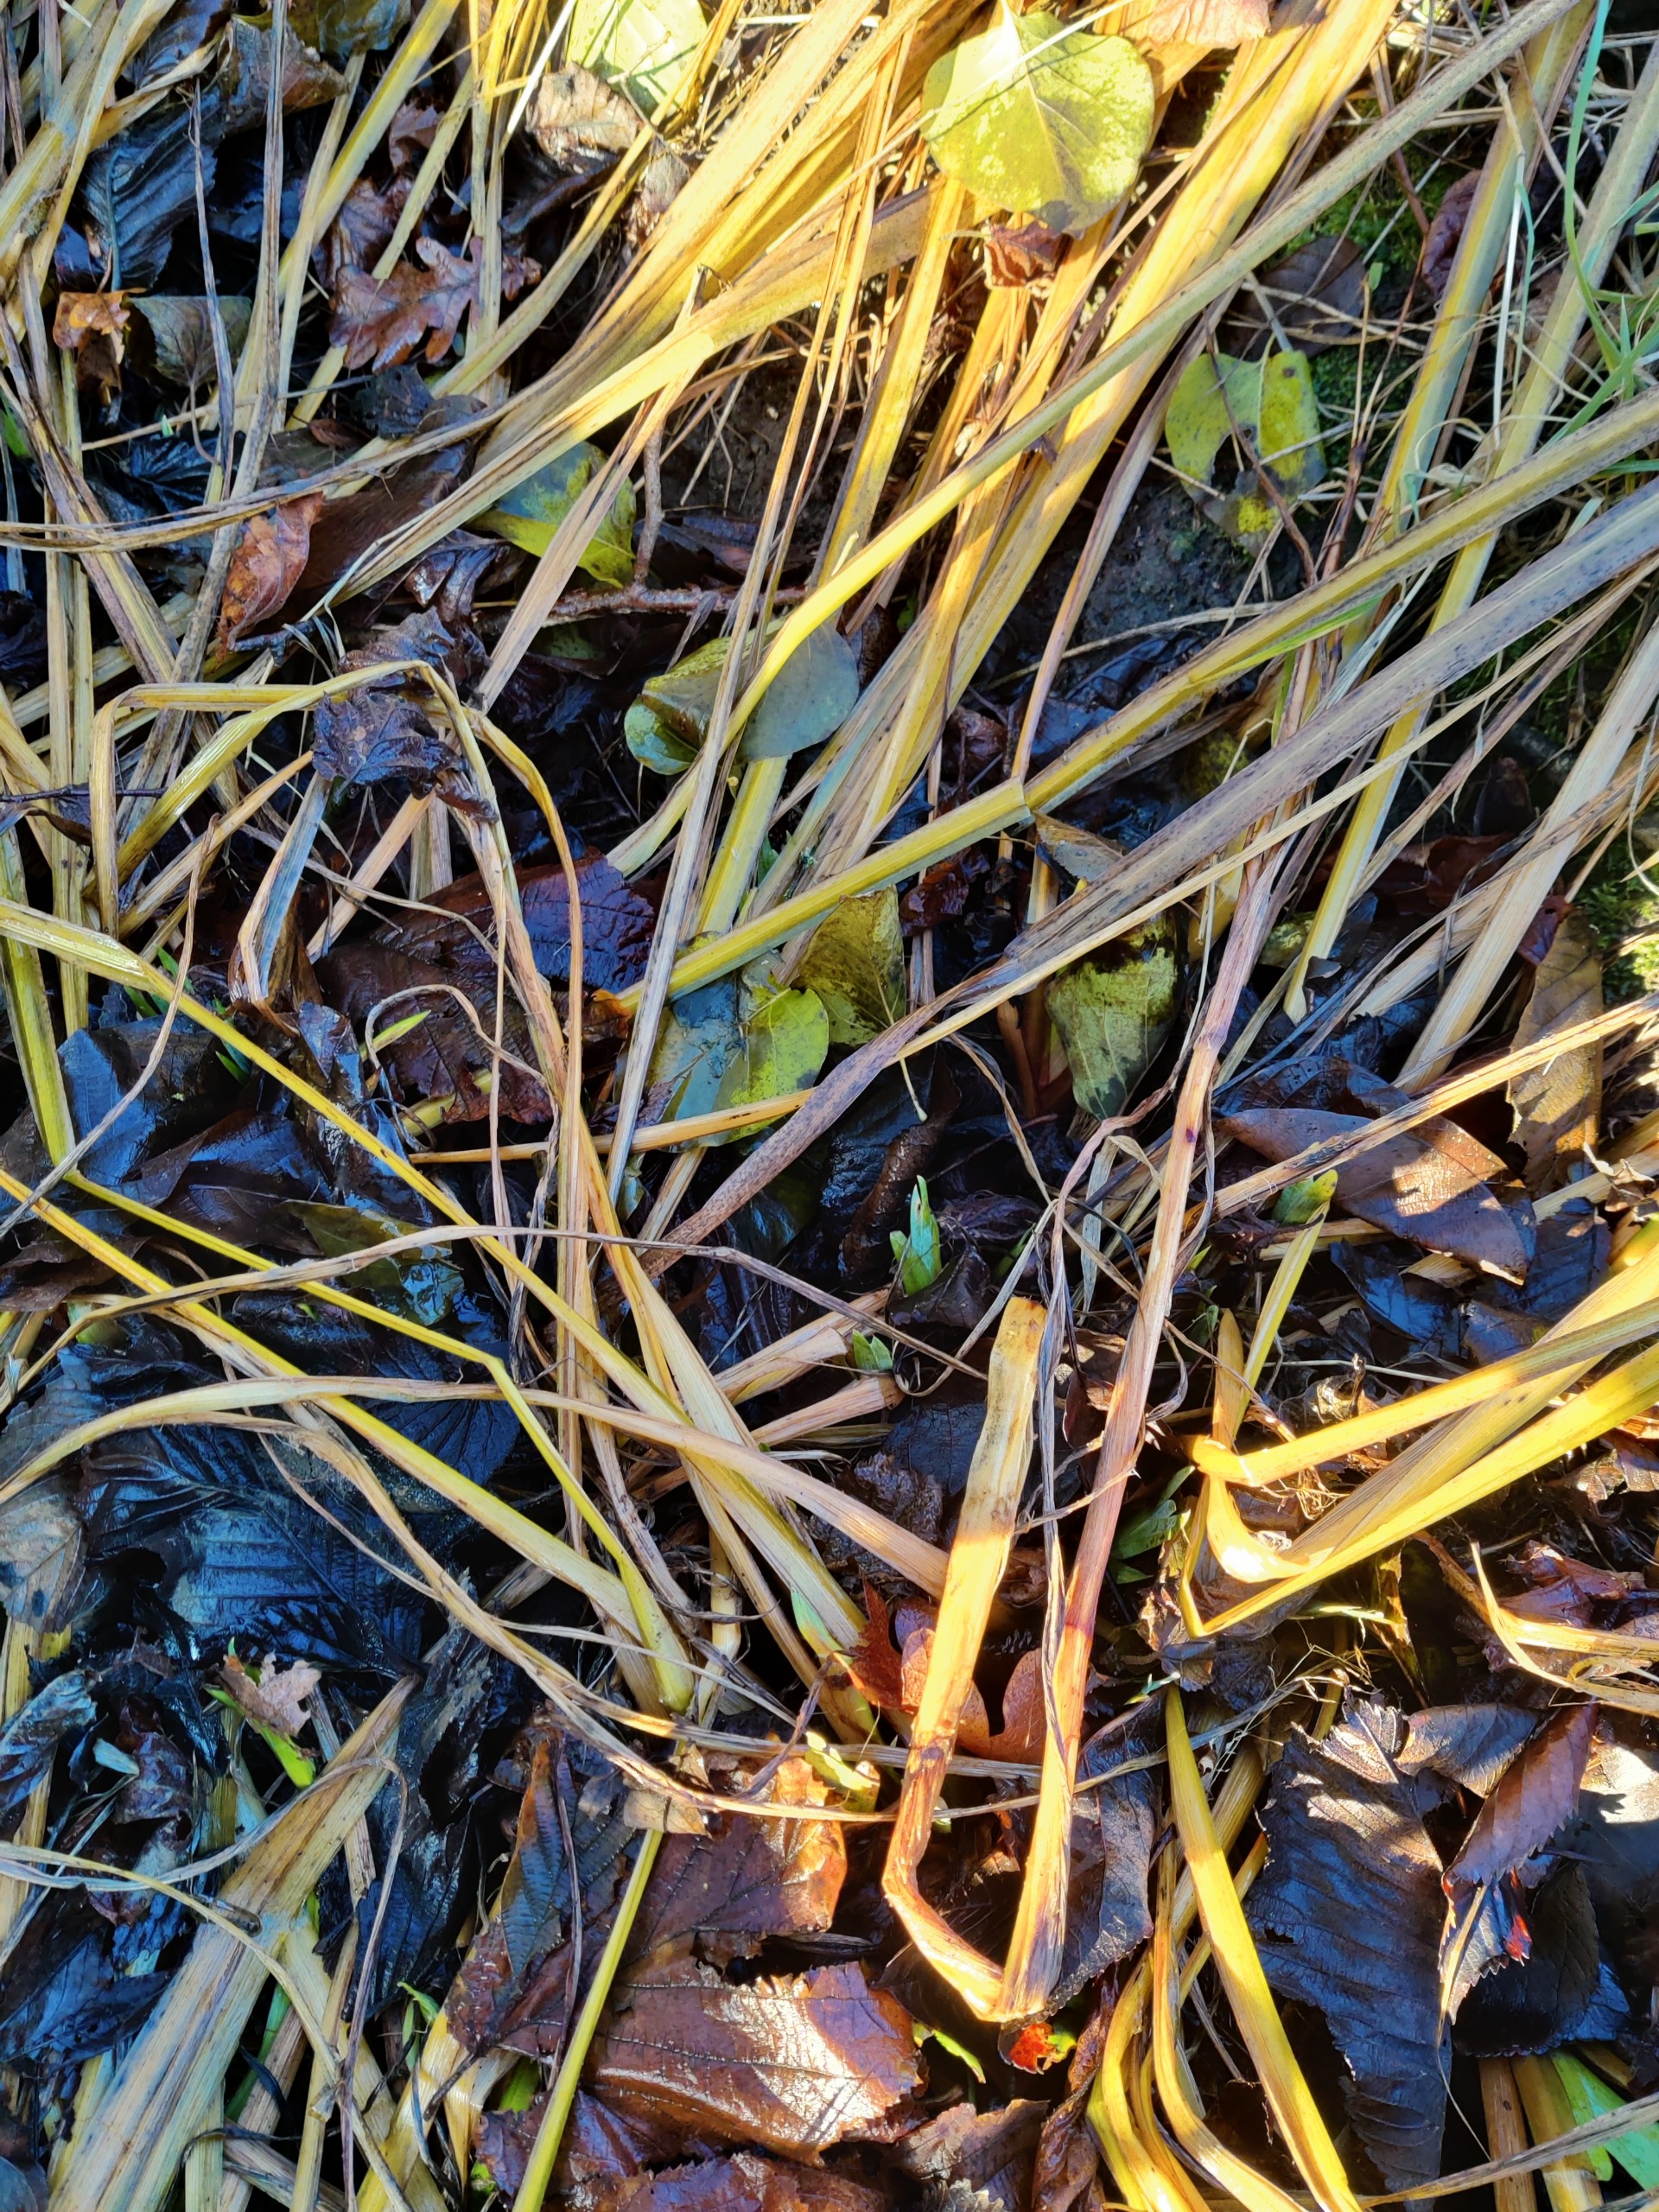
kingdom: Plantae
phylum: Tracheophyta
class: Liliopsida
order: Asparagales
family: Iridaceae
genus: Iris
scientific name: Iris pseudacorus
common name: Gul iris
